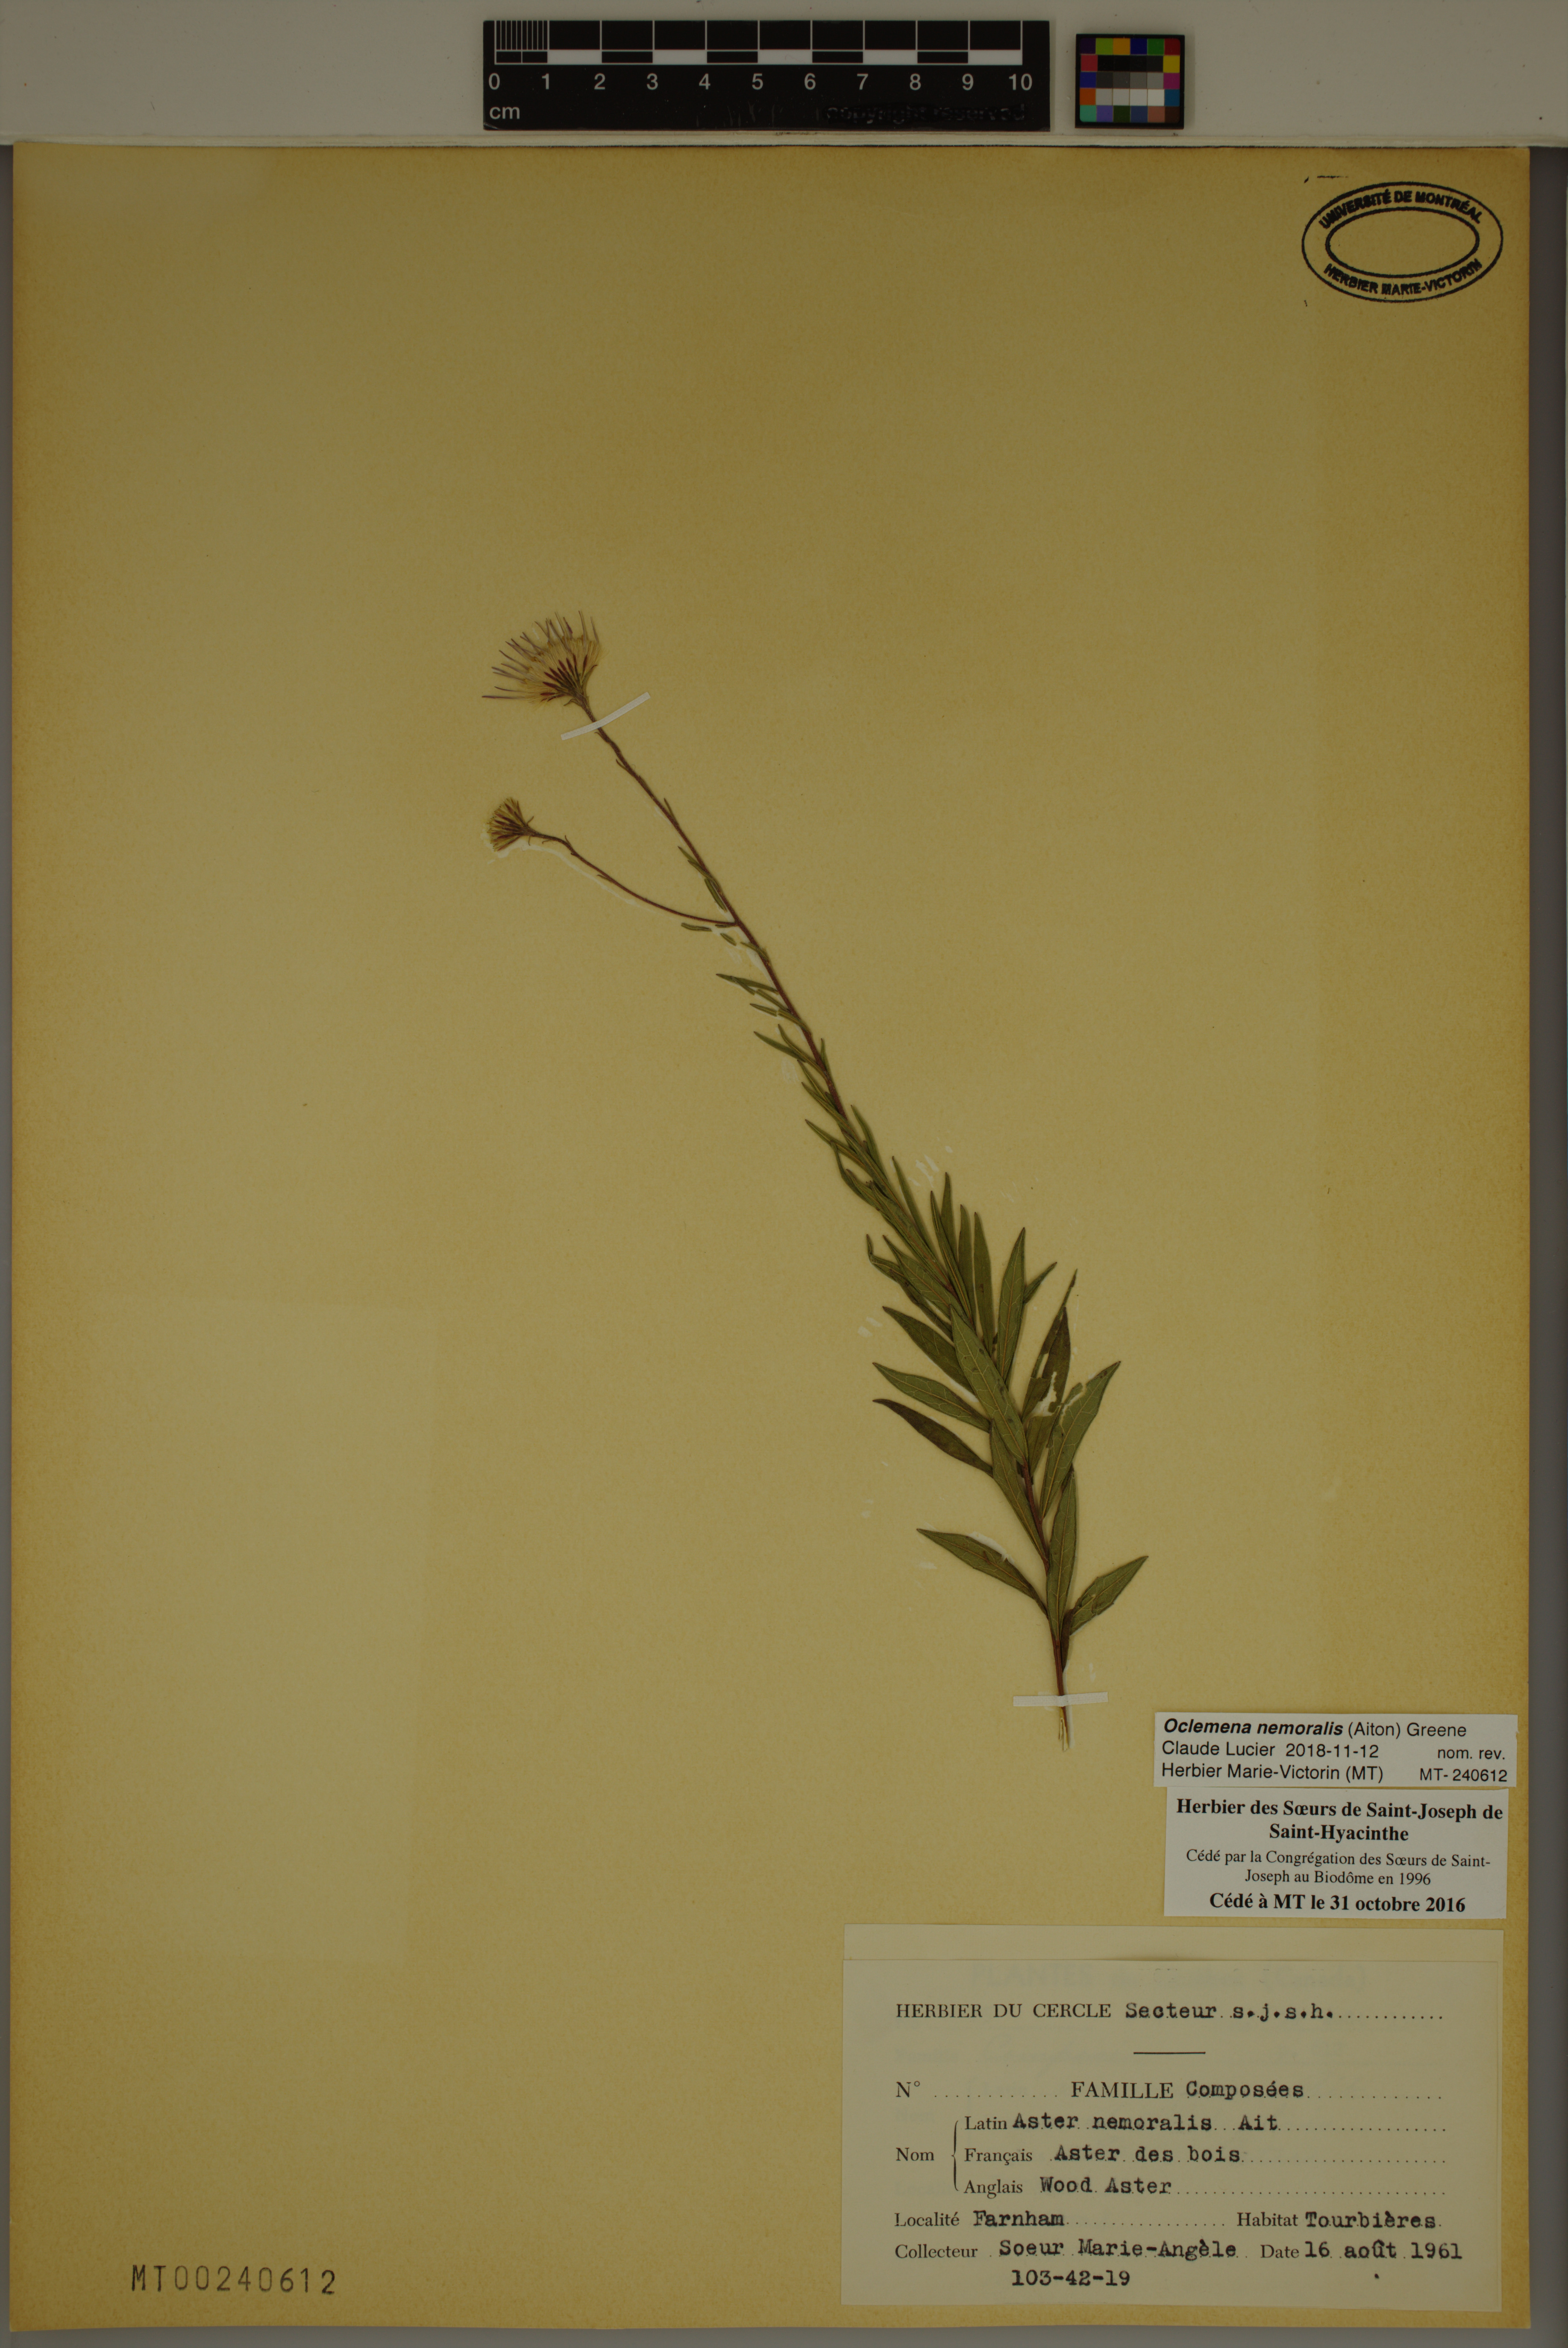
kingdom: Plantae
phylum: Tracheophyta
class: Magnoliopsida
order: Asterales
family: Asteraceae
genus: Oclemena
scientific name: Oclemena nemoralis
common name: Bog aster
